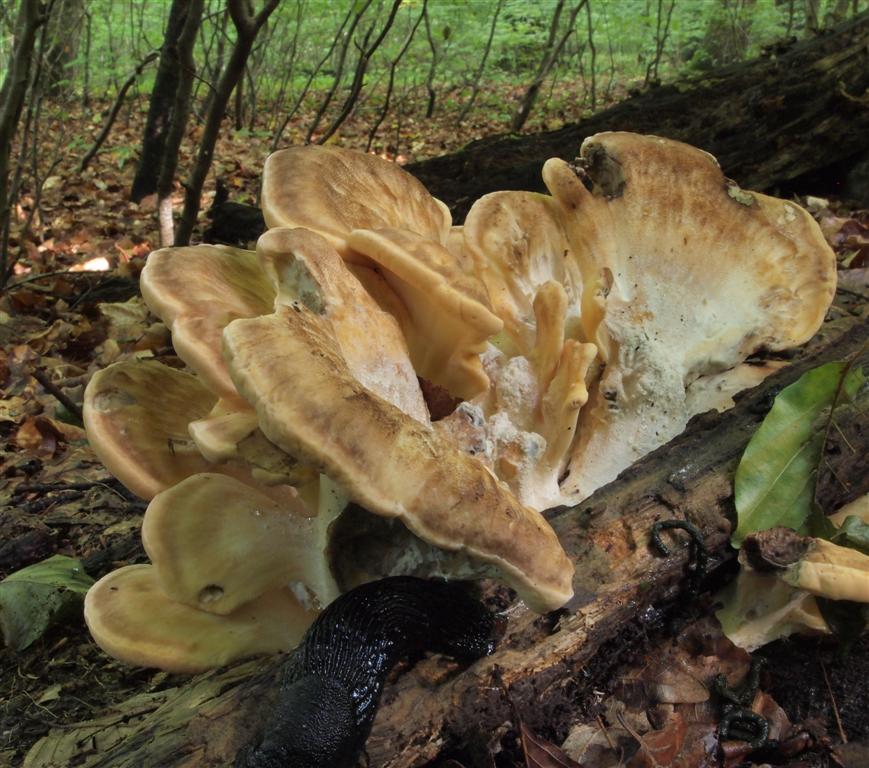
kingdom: Fungi
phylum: Basidiomycota
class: Agaricomycetes
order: Polyporales
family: Meripilaceae
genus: Meripilus
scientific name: Meripilus giganteus
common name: kæmpeporesvamp
